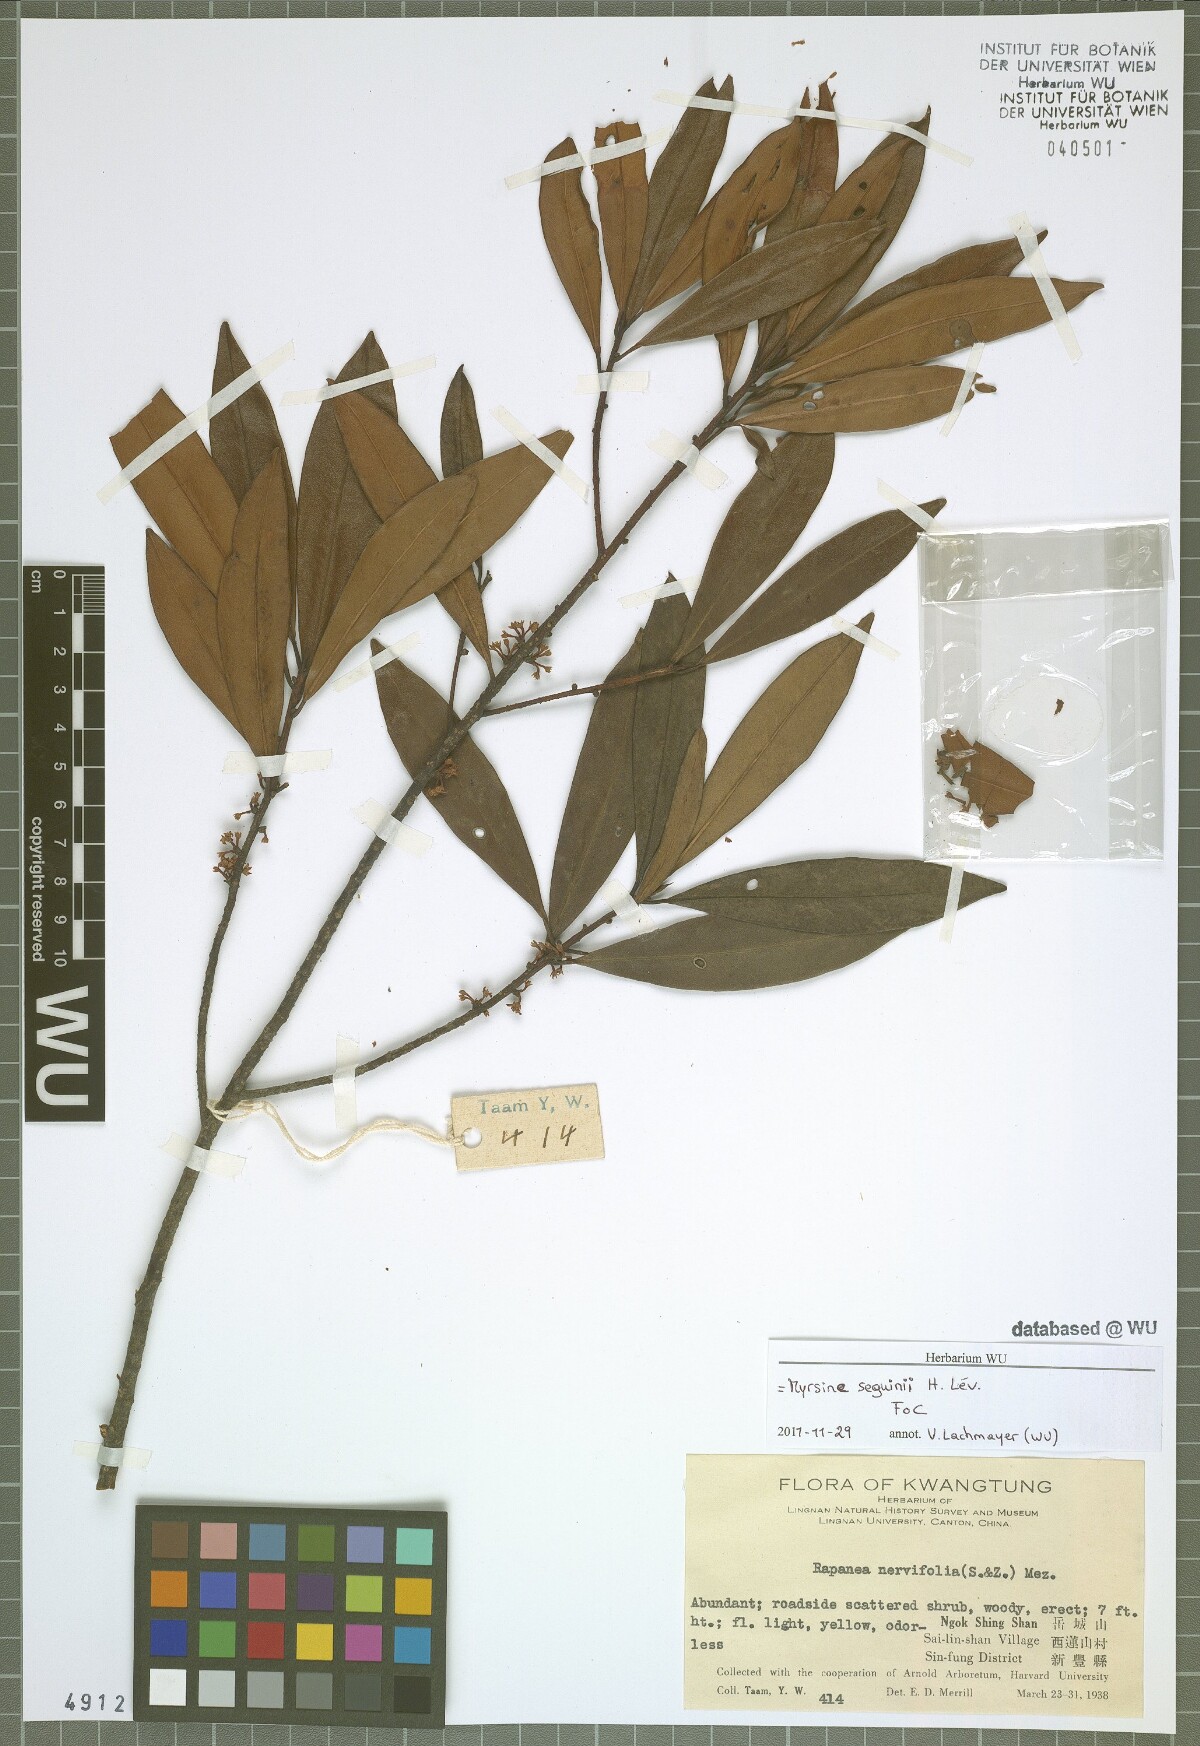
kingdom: Plantae
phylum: Tracheophyta
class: Magnoliopsida
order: Ericales
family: Primulaceae
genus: Myrsine
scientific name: Myrsine seguinii
